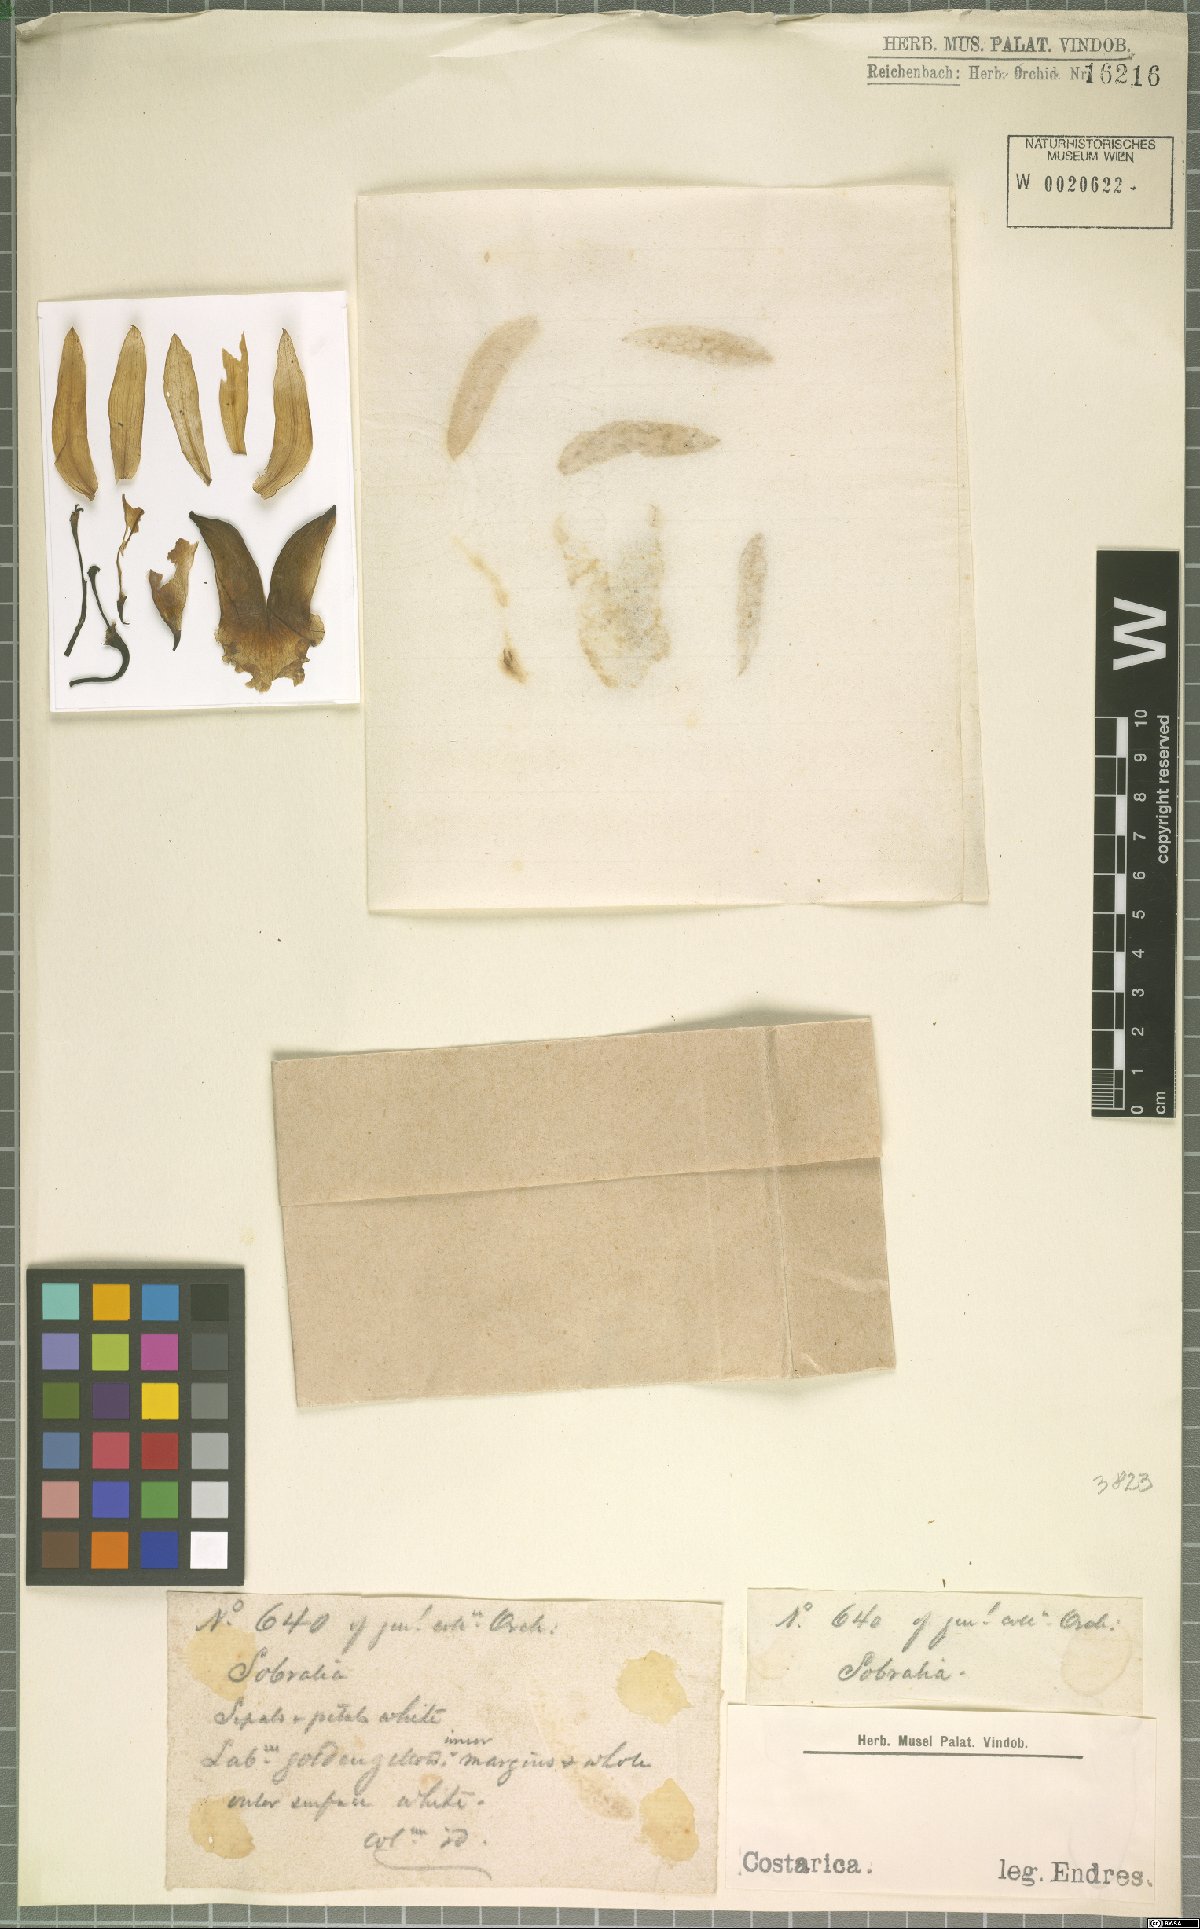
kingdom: Plantae
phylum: Tracheophyta
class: Liliopsida
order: Asparagales
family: Orchidaceae
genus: Sobralia
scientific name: Sobralia
